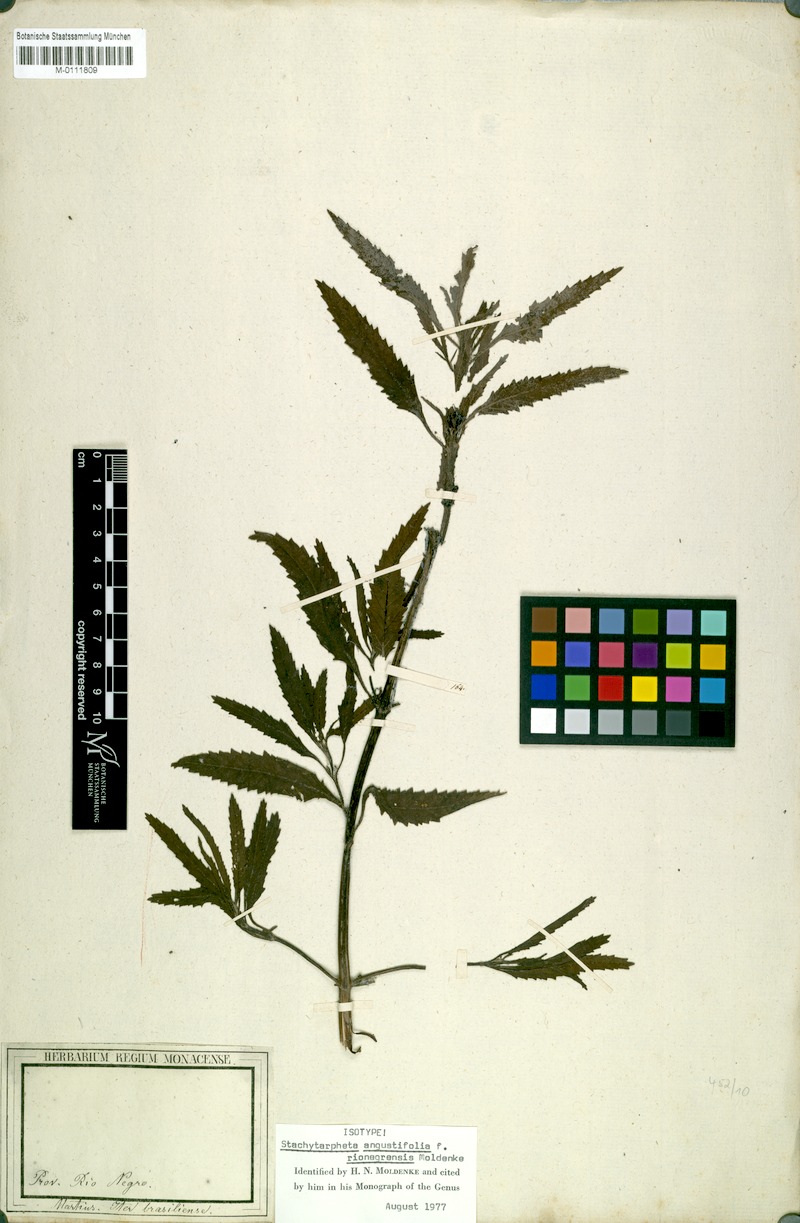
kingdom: Plantae
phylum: Tracheophyta
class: Magnoliopsida
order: Lamiales
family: Verbenaceae
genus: Stachytarpheta
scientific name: Stachytarpheta indica
